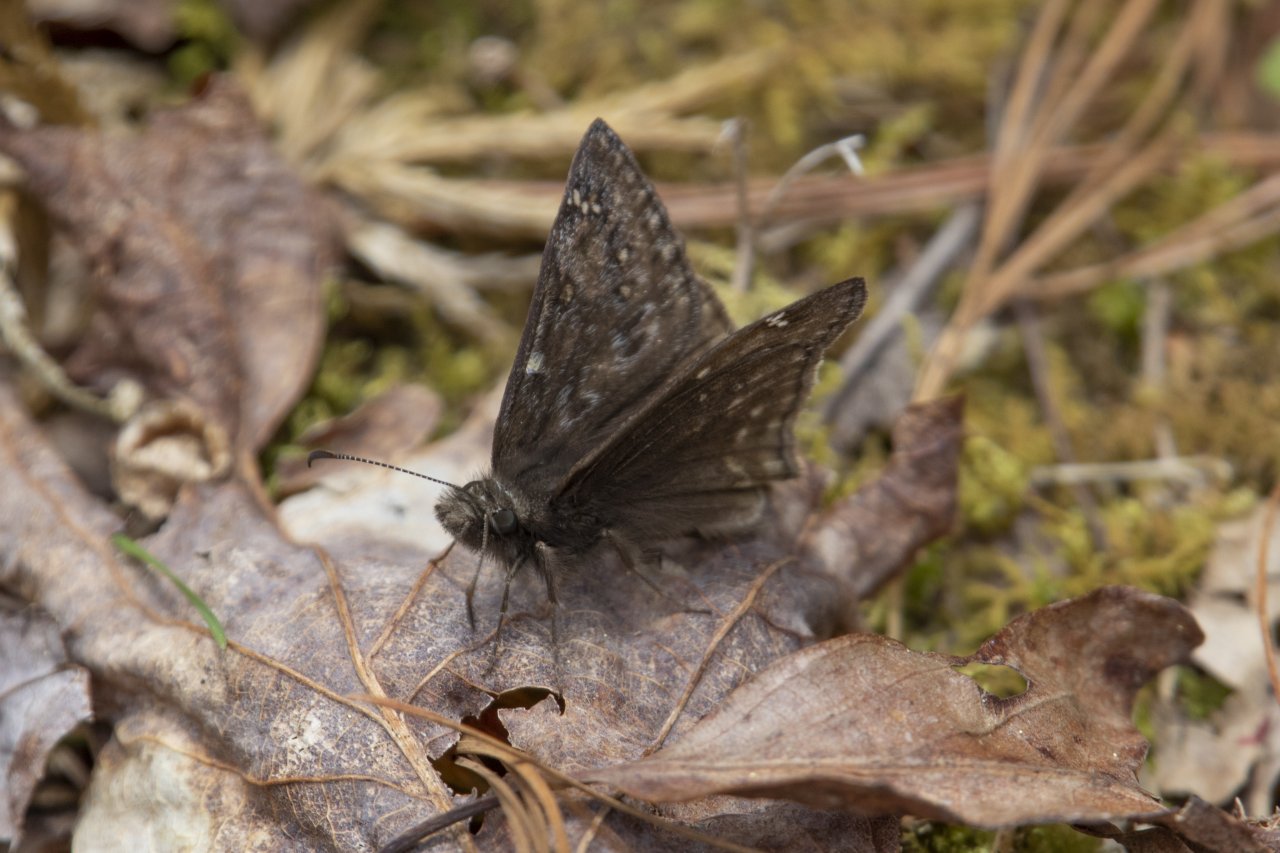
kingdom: Animalia
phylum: Arthropoda
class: Insecta
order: Lepidoptera
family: Hesperiidae
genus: Gesta
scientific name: Gesta
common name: Juvenal's Duskywing
